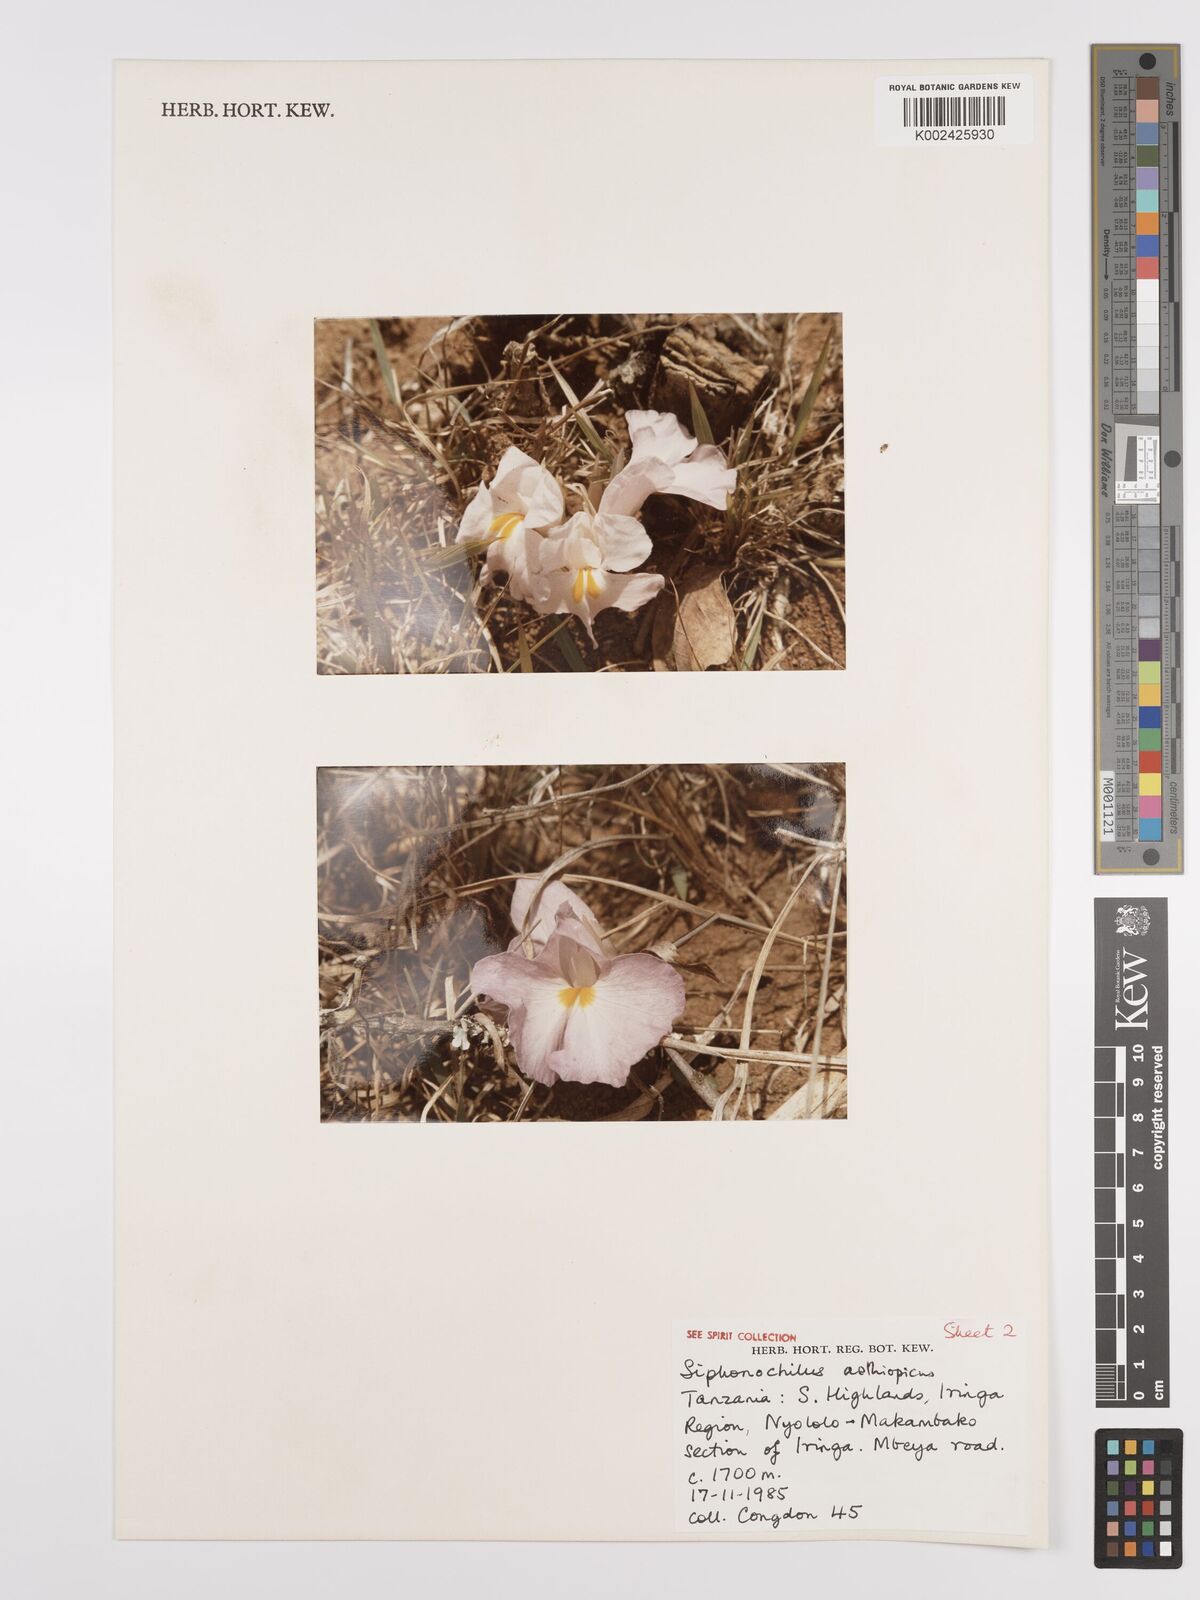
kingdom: Plantae
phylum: Tracheophyta
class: Liliopsida
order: Zingiberales
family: Zingiberaceae
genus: Siphonochilus
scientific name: Siphonochilus aethiopicus
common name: African-ginger
